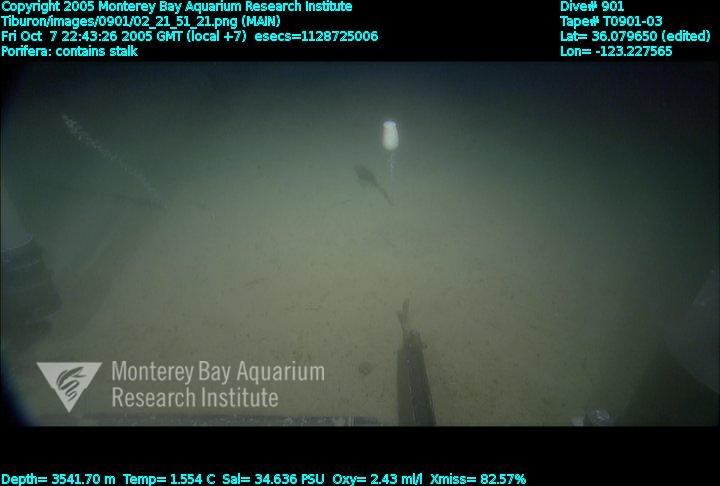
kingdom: Animalia
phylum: Porifera
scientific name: Porifera
